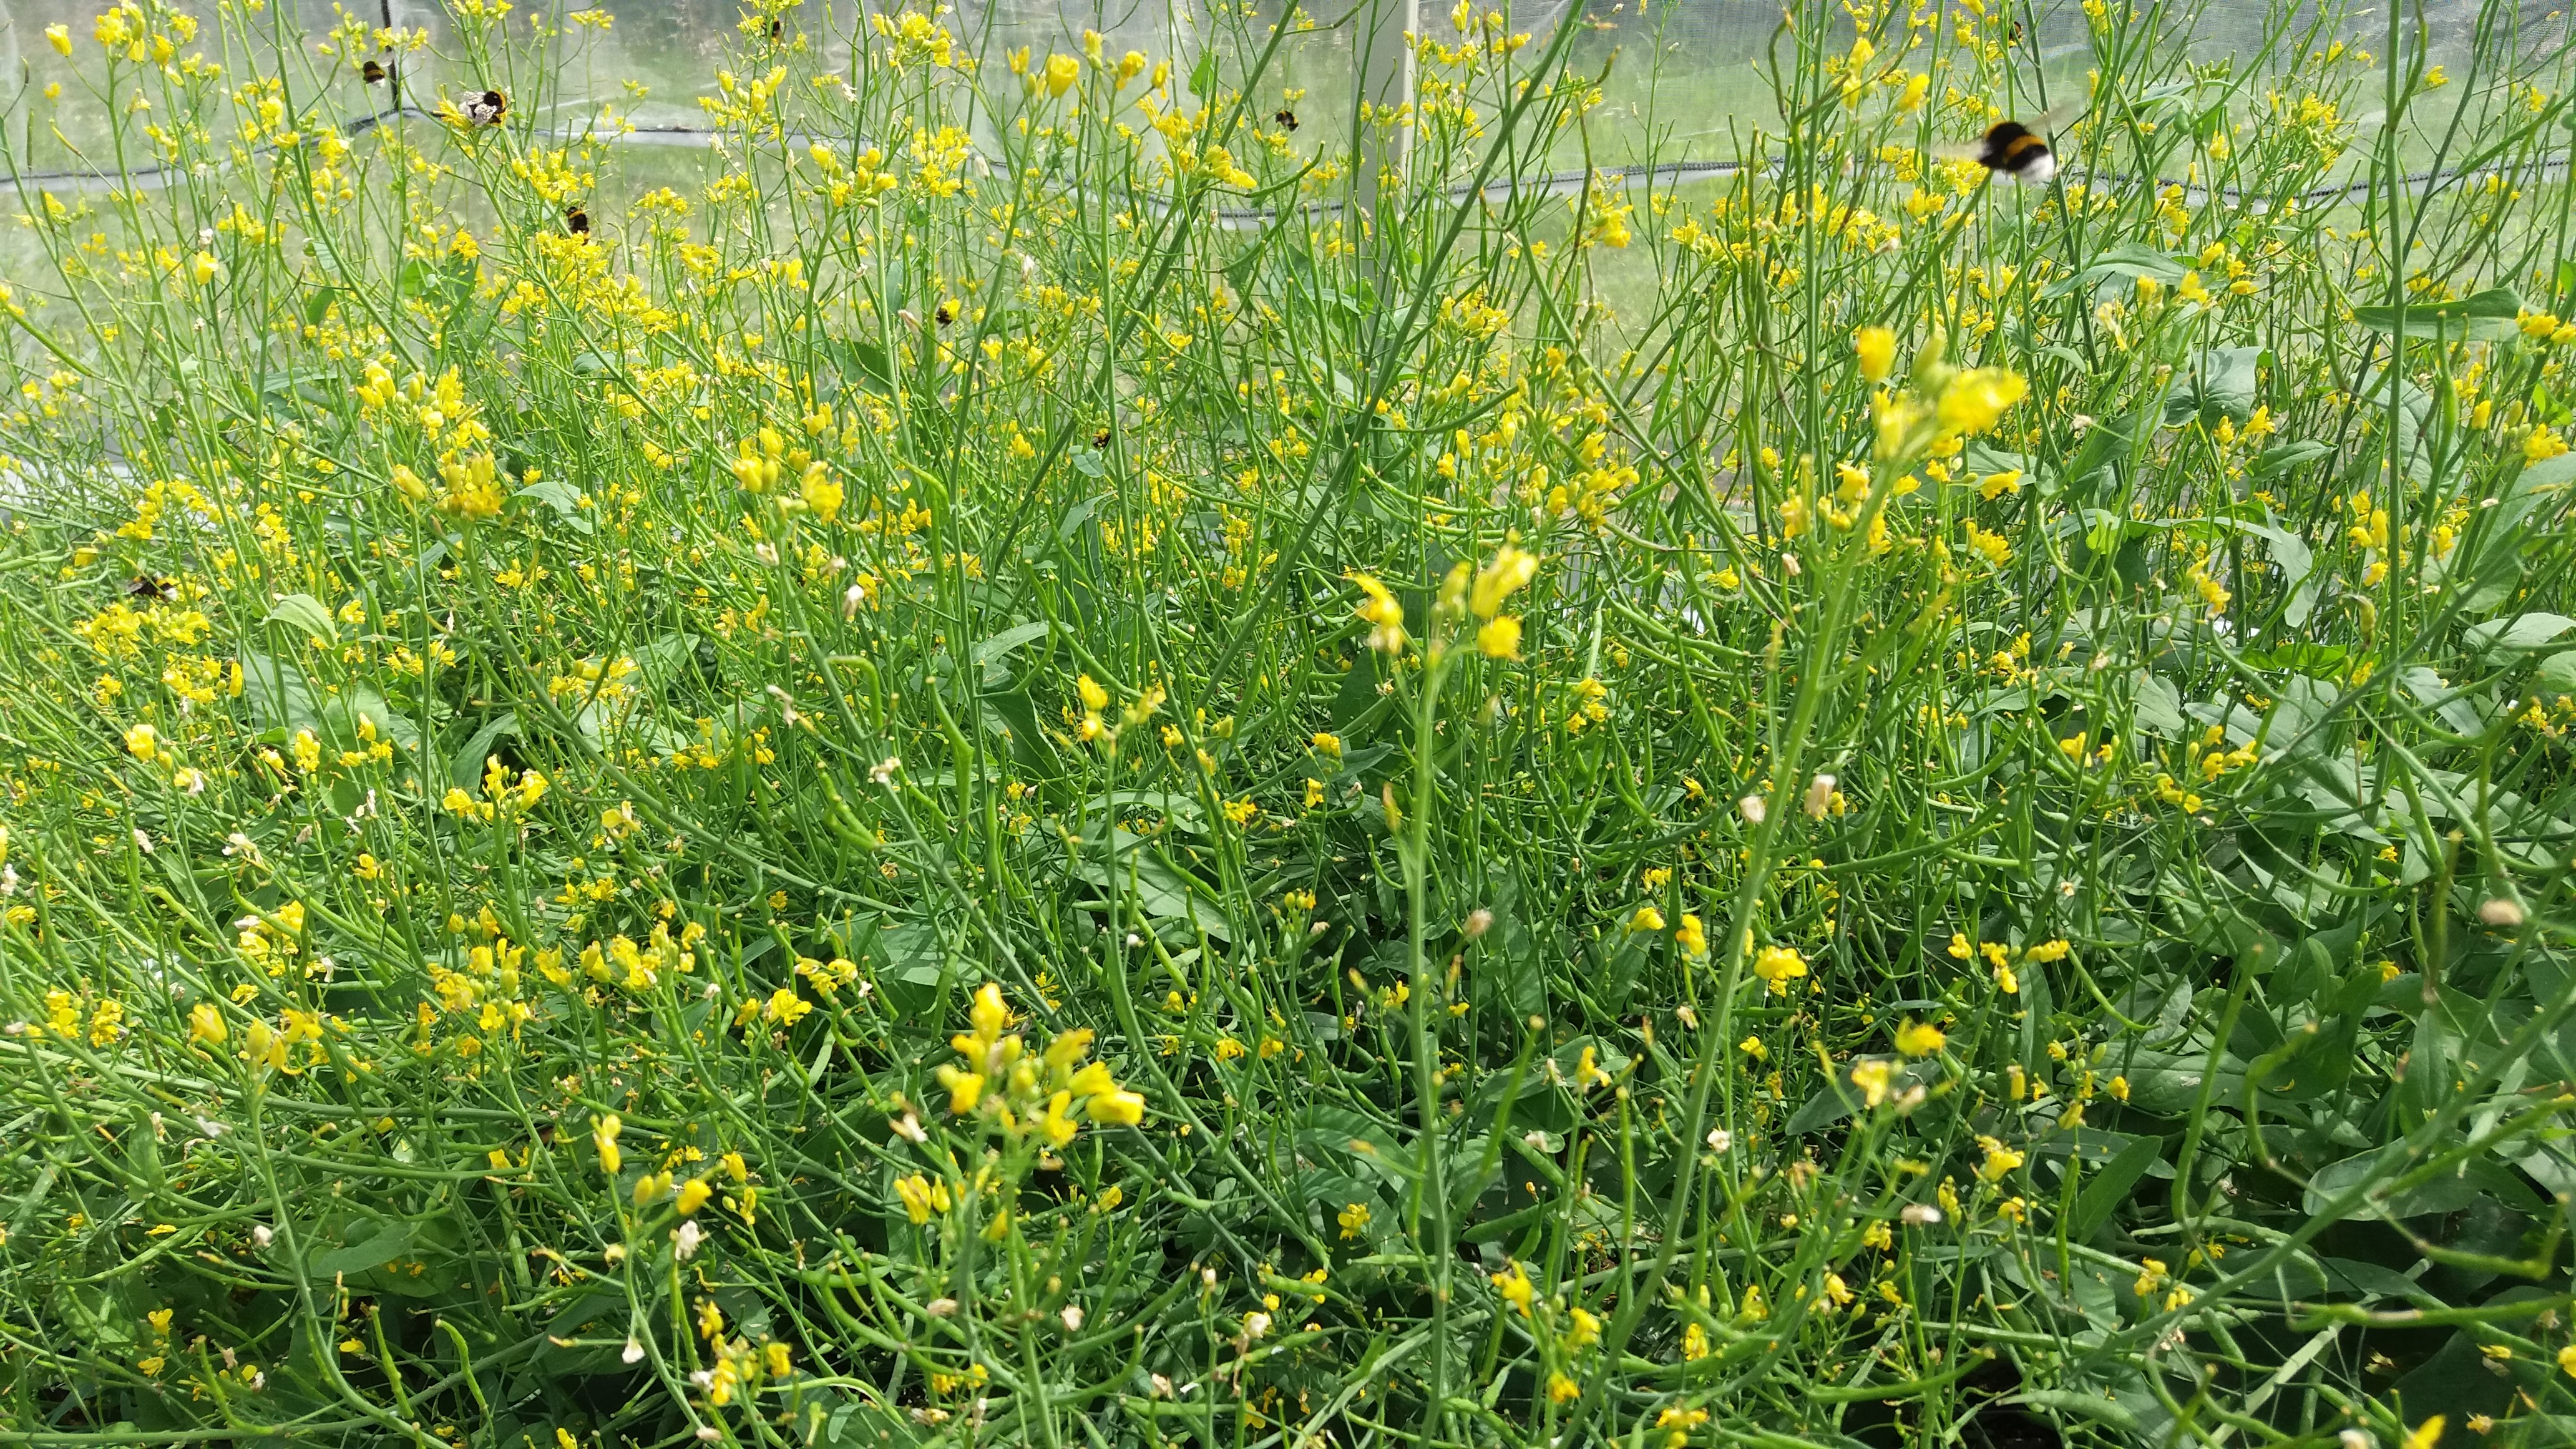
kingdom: Plantae
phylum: Tracheophyta
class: Magnoliopsida
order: Brassicales
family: Brassicaceae
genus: Brassica
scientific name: Brassica rapa
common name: Field mustard
